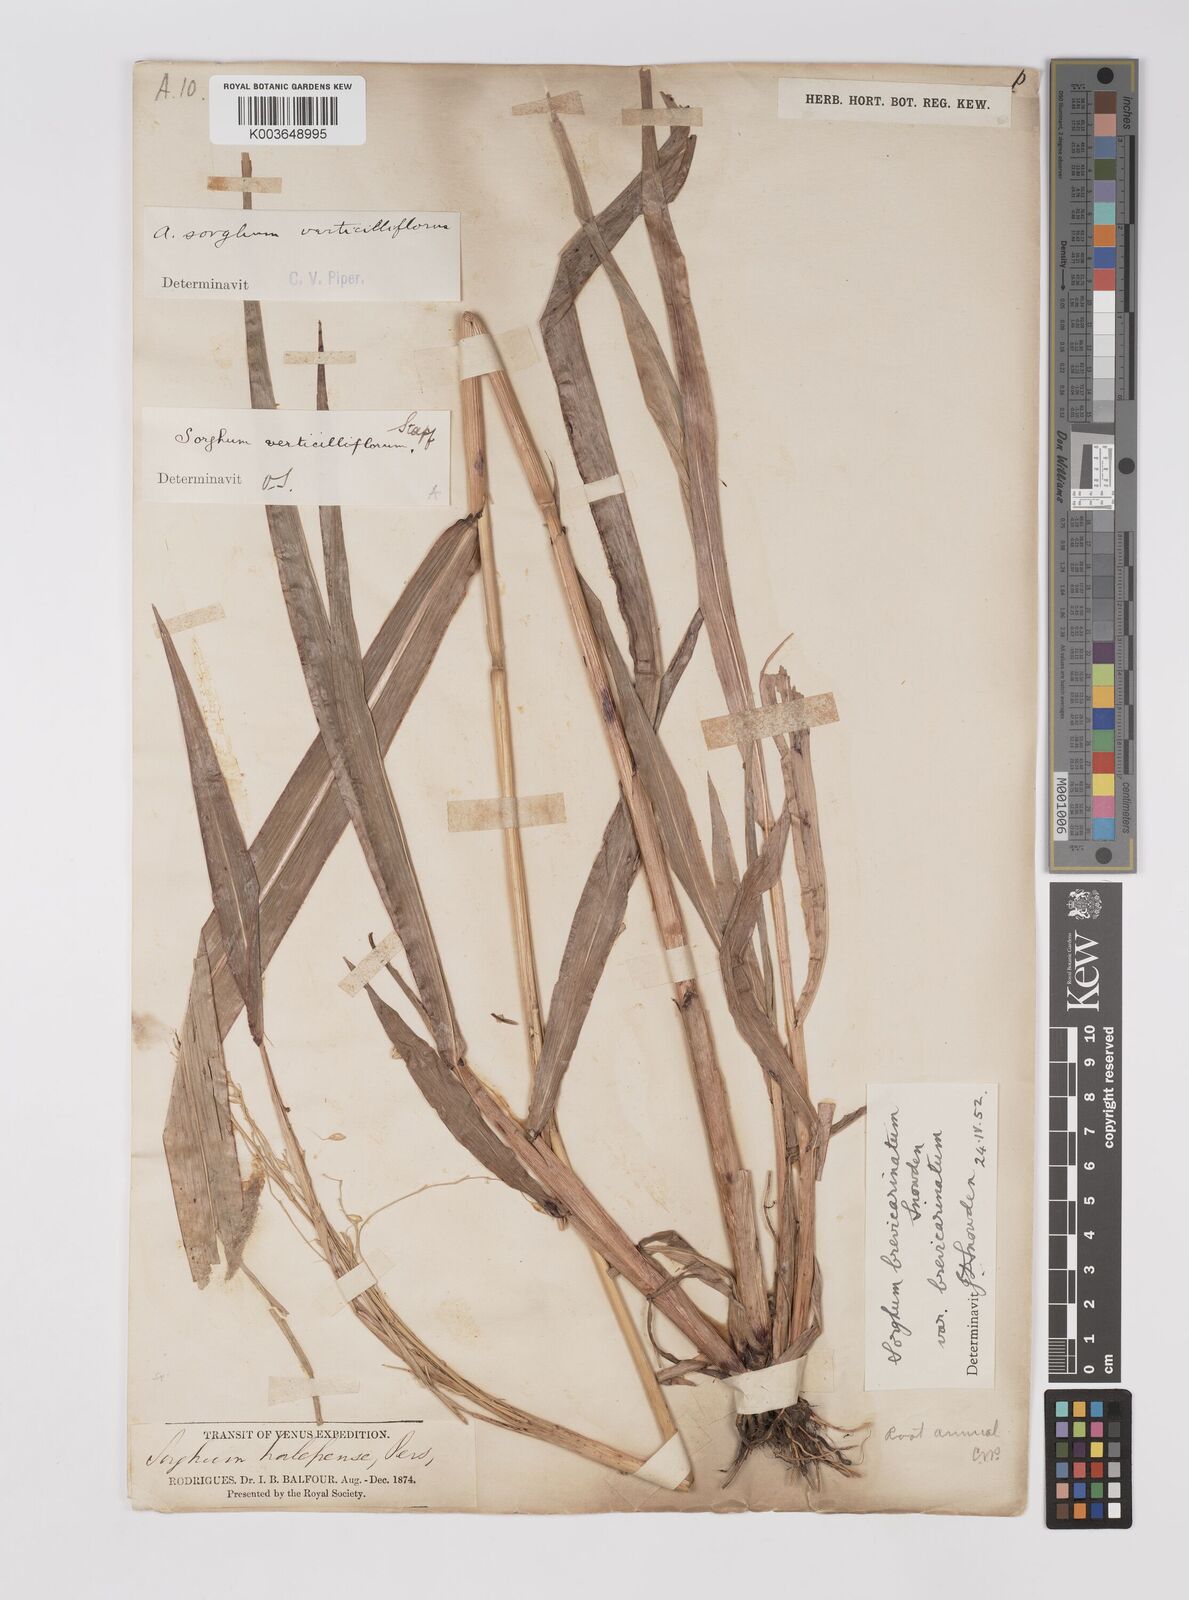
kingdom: Plantae
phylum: Tracheophyta
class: Liliopsida
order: Poales
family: Poaceae
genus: Sorghum
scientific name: Sorghum arundinaceum
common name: Sorghum
